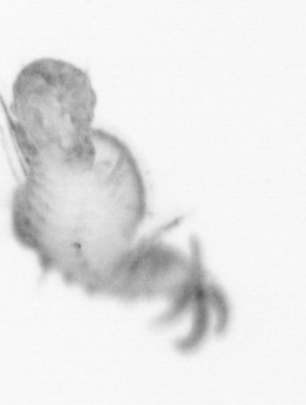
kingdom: Animalia
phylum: Annelida
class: Polychaeta
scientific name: Polychaeta
